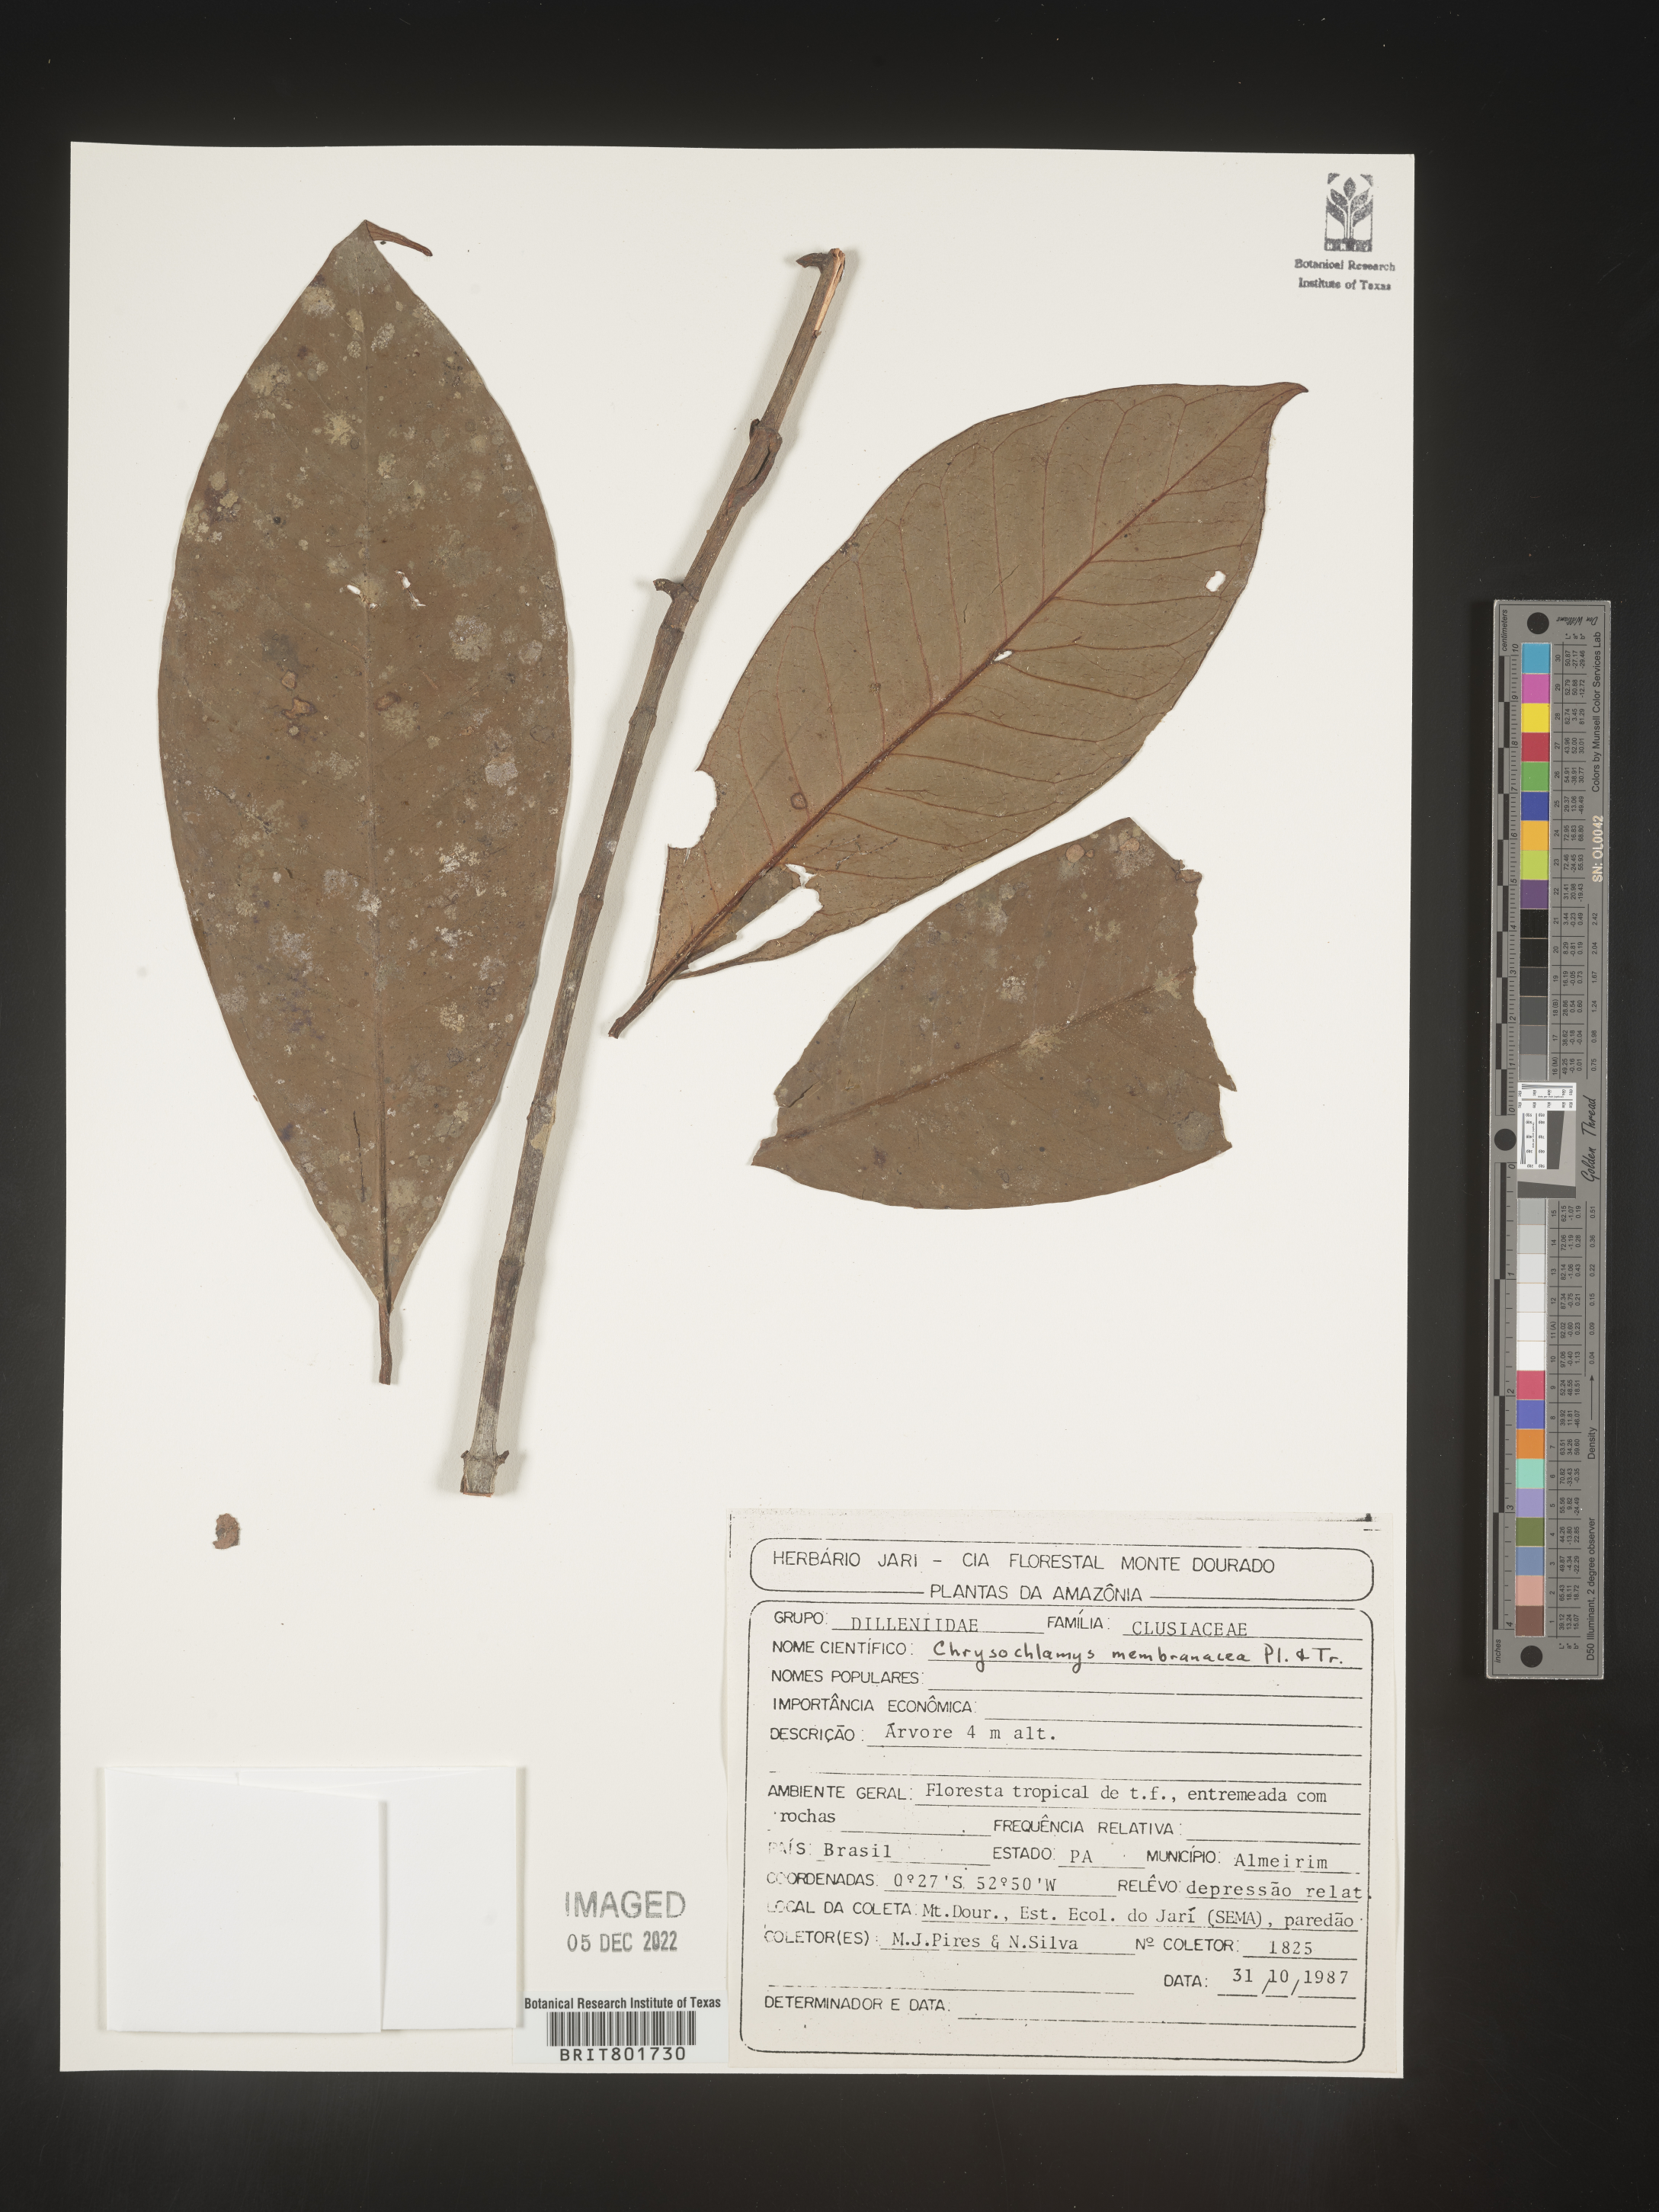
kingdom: Plantae
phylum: Tracheophyta
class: Magnoliopsida
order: Malpighiales
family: Clusiaceae
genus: Chrysochlamys
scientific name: Chrysochlamys membranacea
